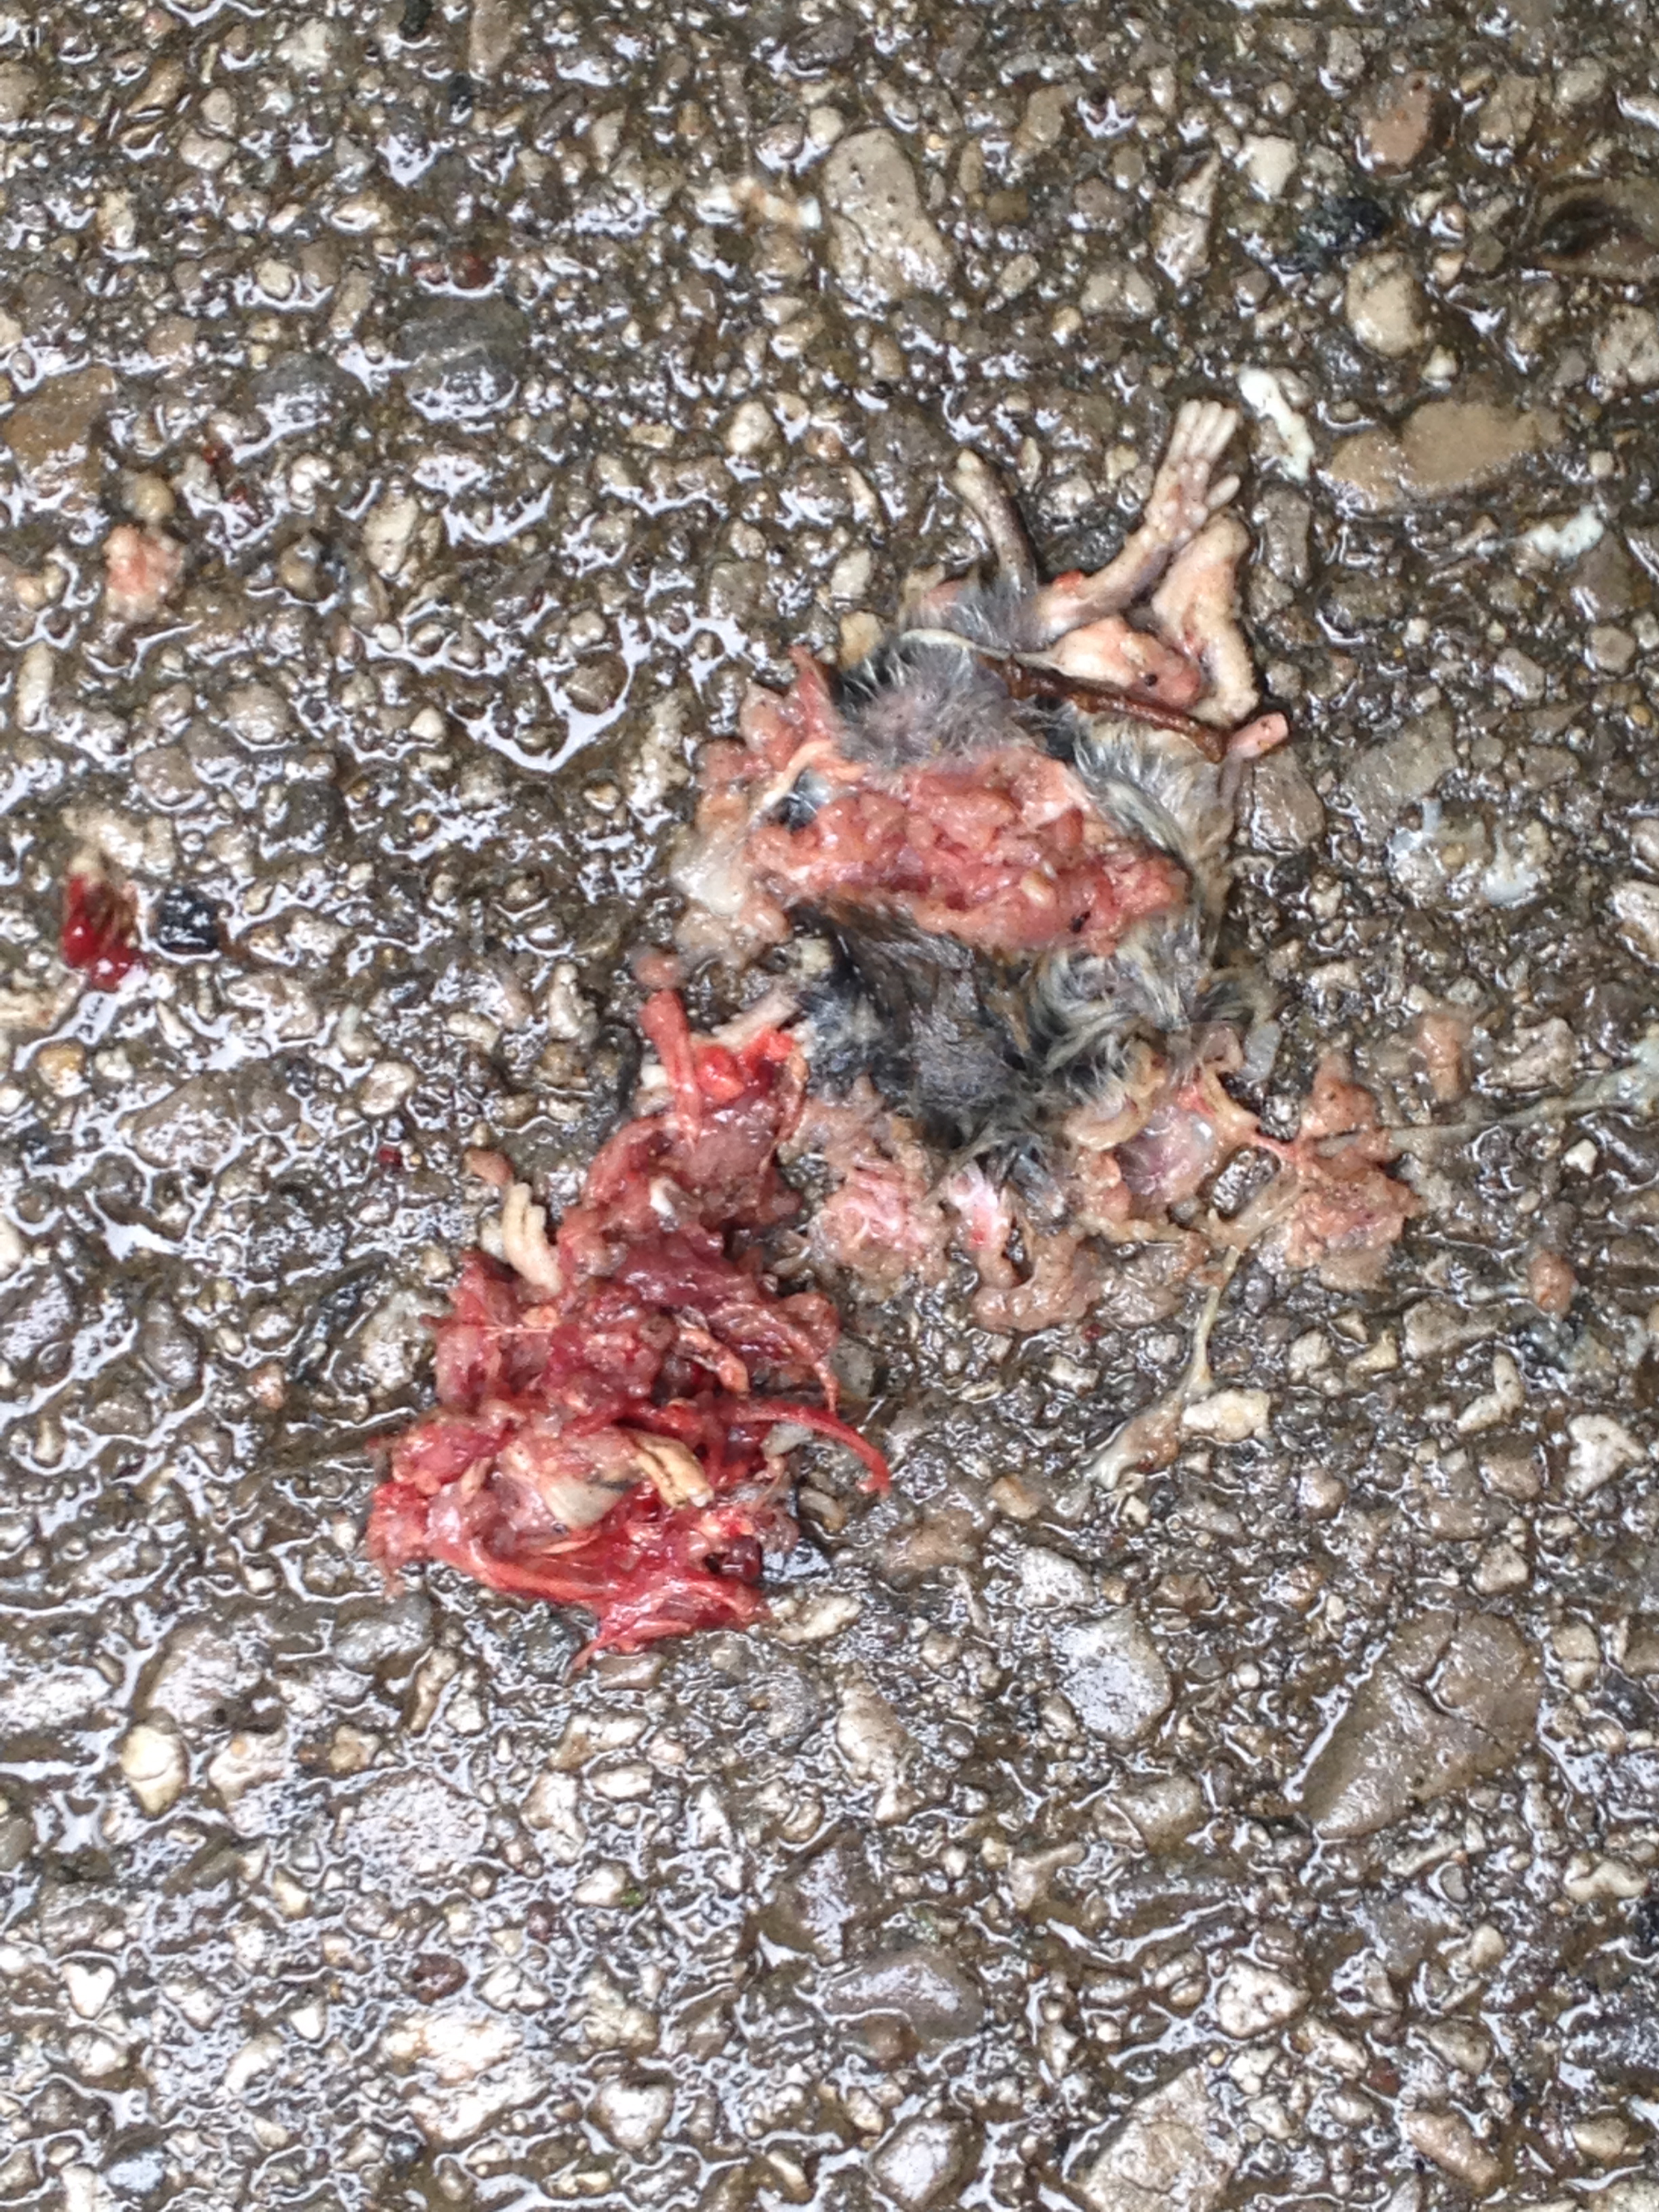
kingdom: Animalia
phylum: Chordata
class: Mammalia
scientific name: Mammalia
